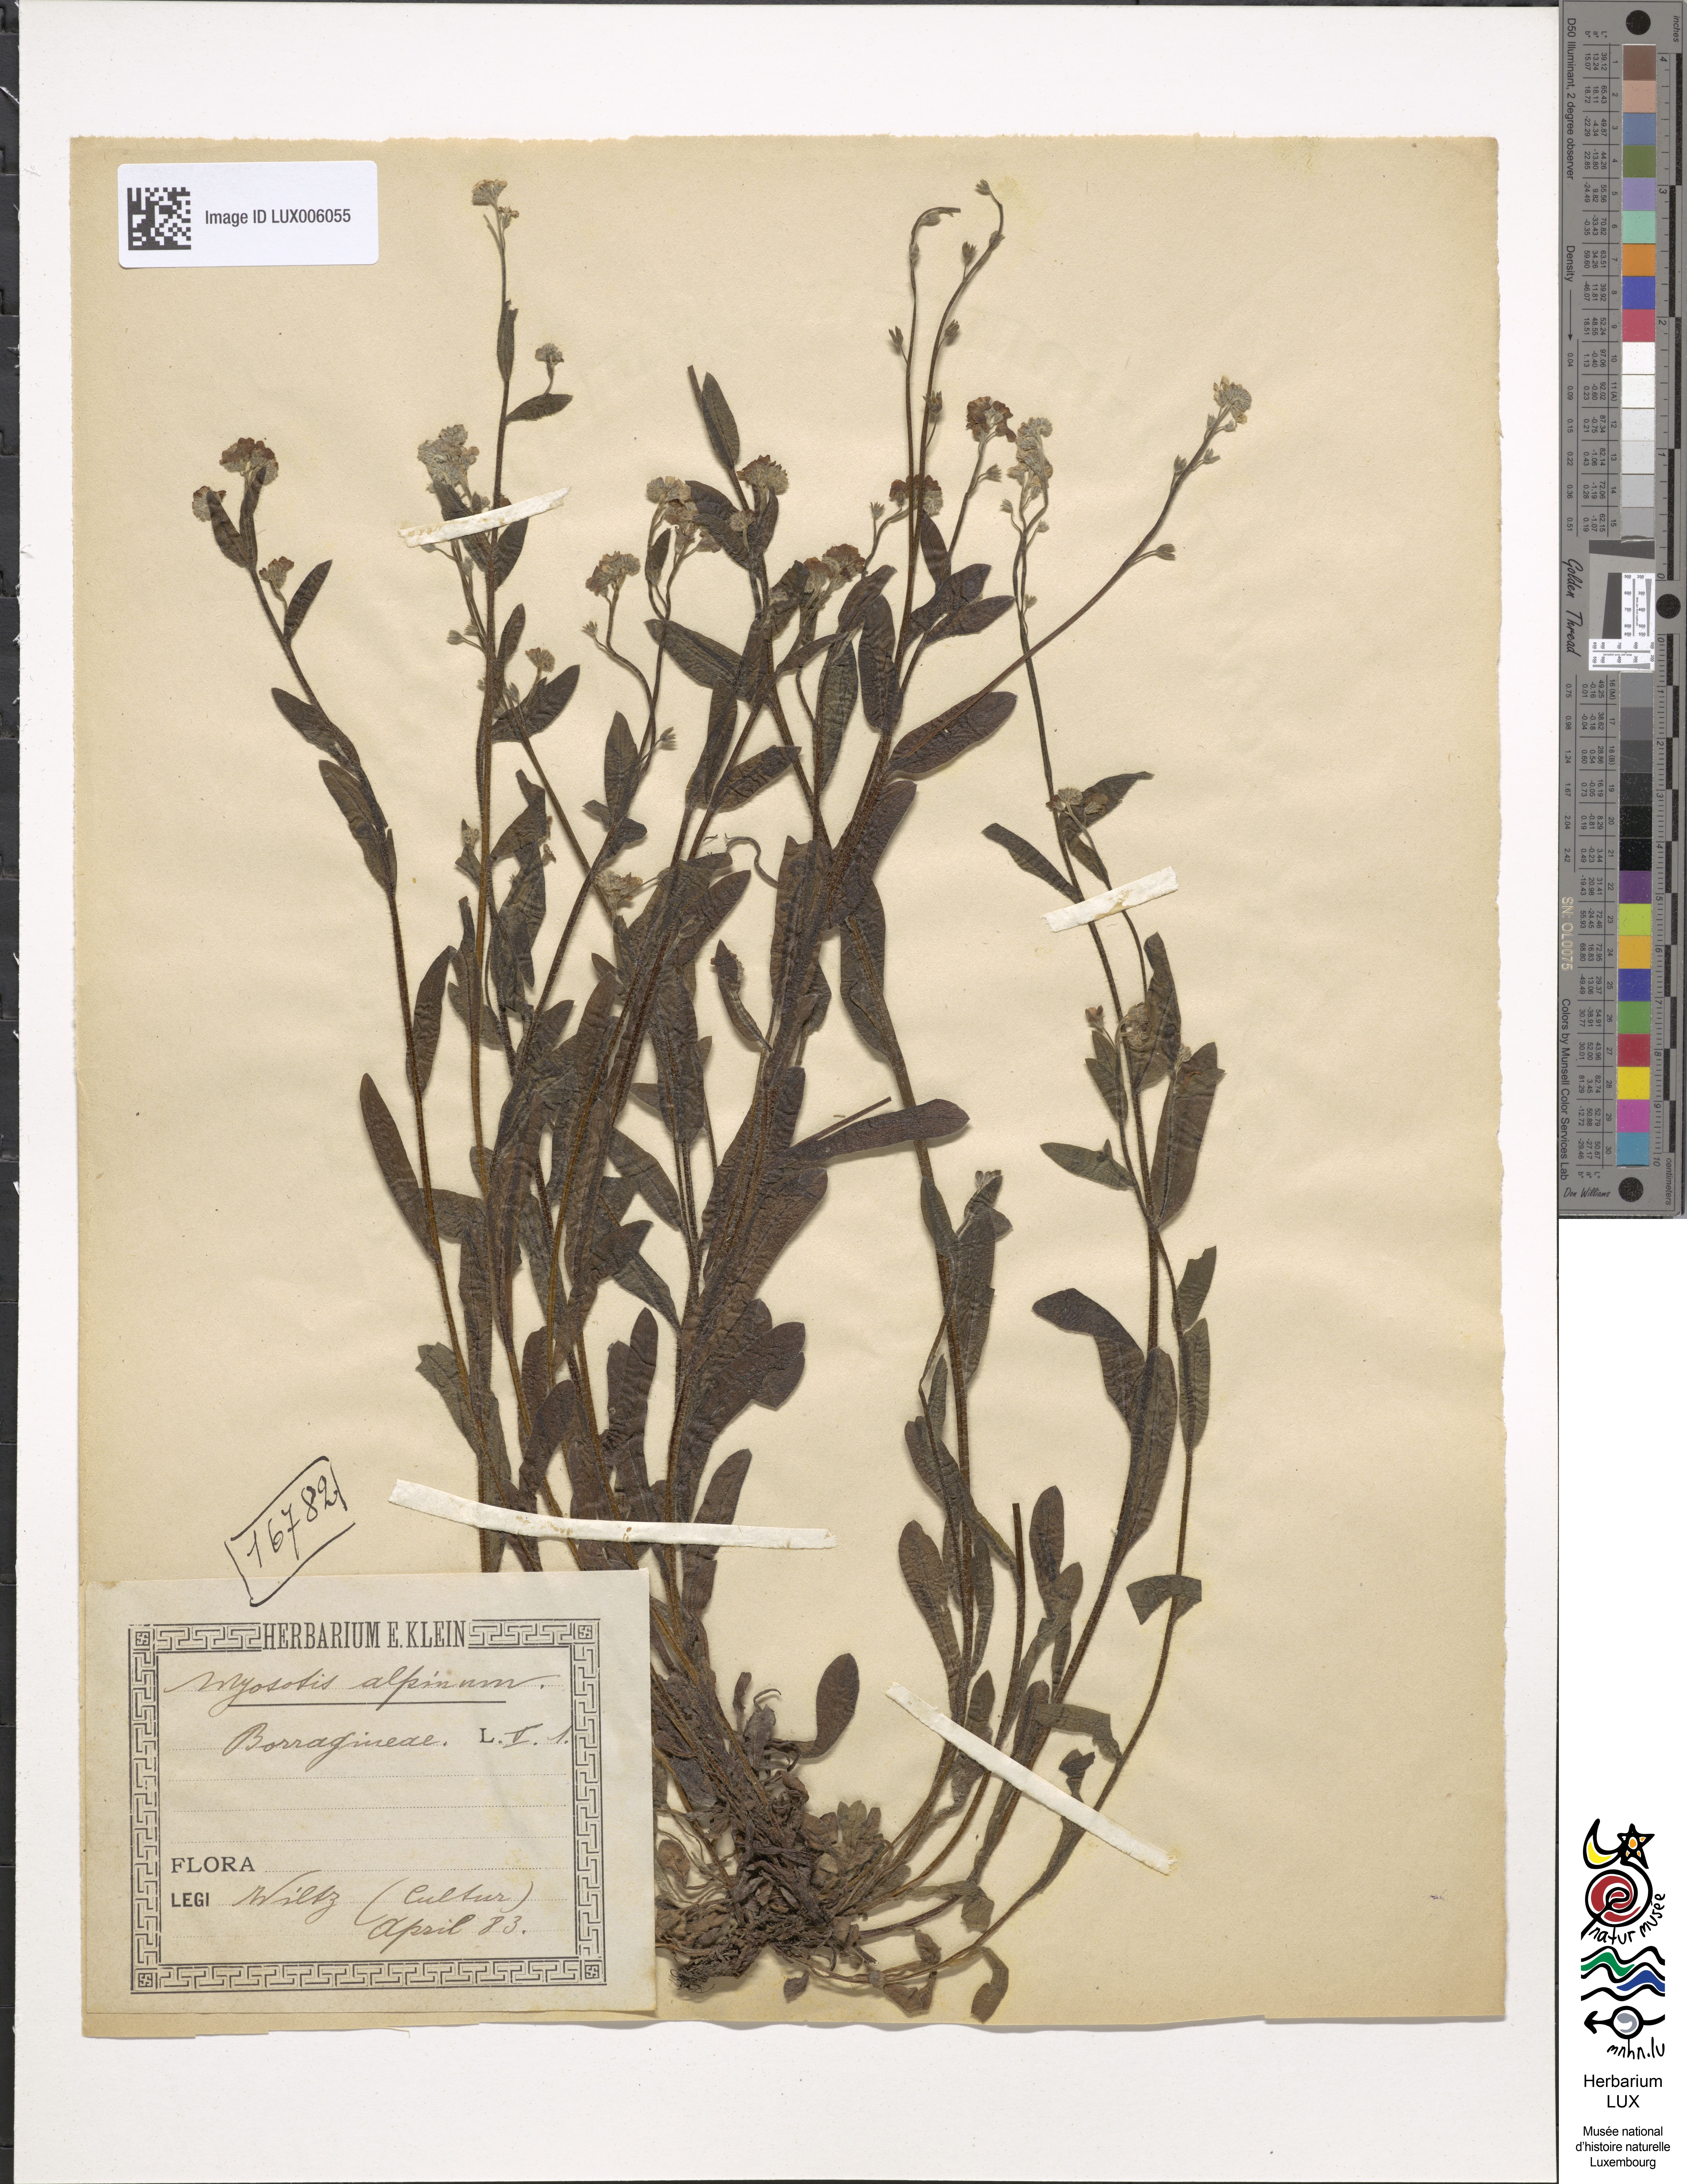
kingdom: Plantae
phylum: Tracheophyta
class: Magnoliopsida
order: Boraginales
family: Boraginaceae
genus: Myosotis
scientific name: Myosotis sylvatica
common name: Wood forget-me-not
